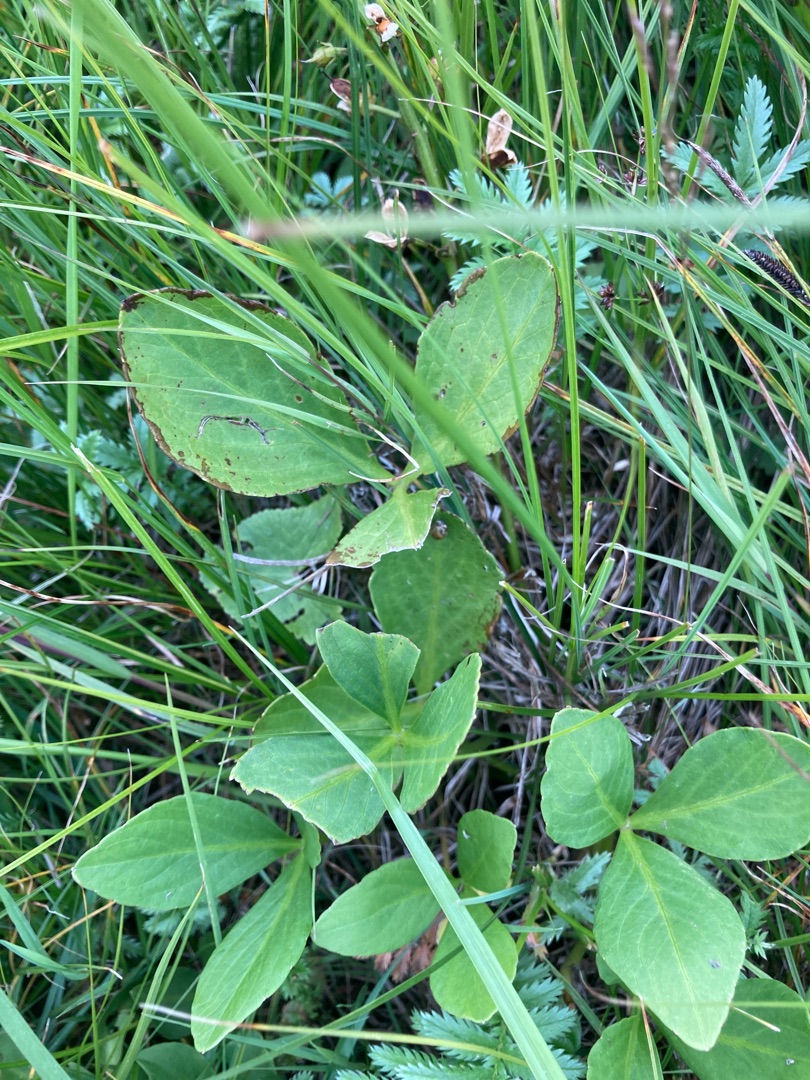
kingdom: Plantae
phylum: Tracheophyta
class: Magnoliopsida
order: Asterales
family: Menyanthaceae
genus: Menyanthes
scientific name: Menyanthes trifoliata
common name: Bukkeblad
